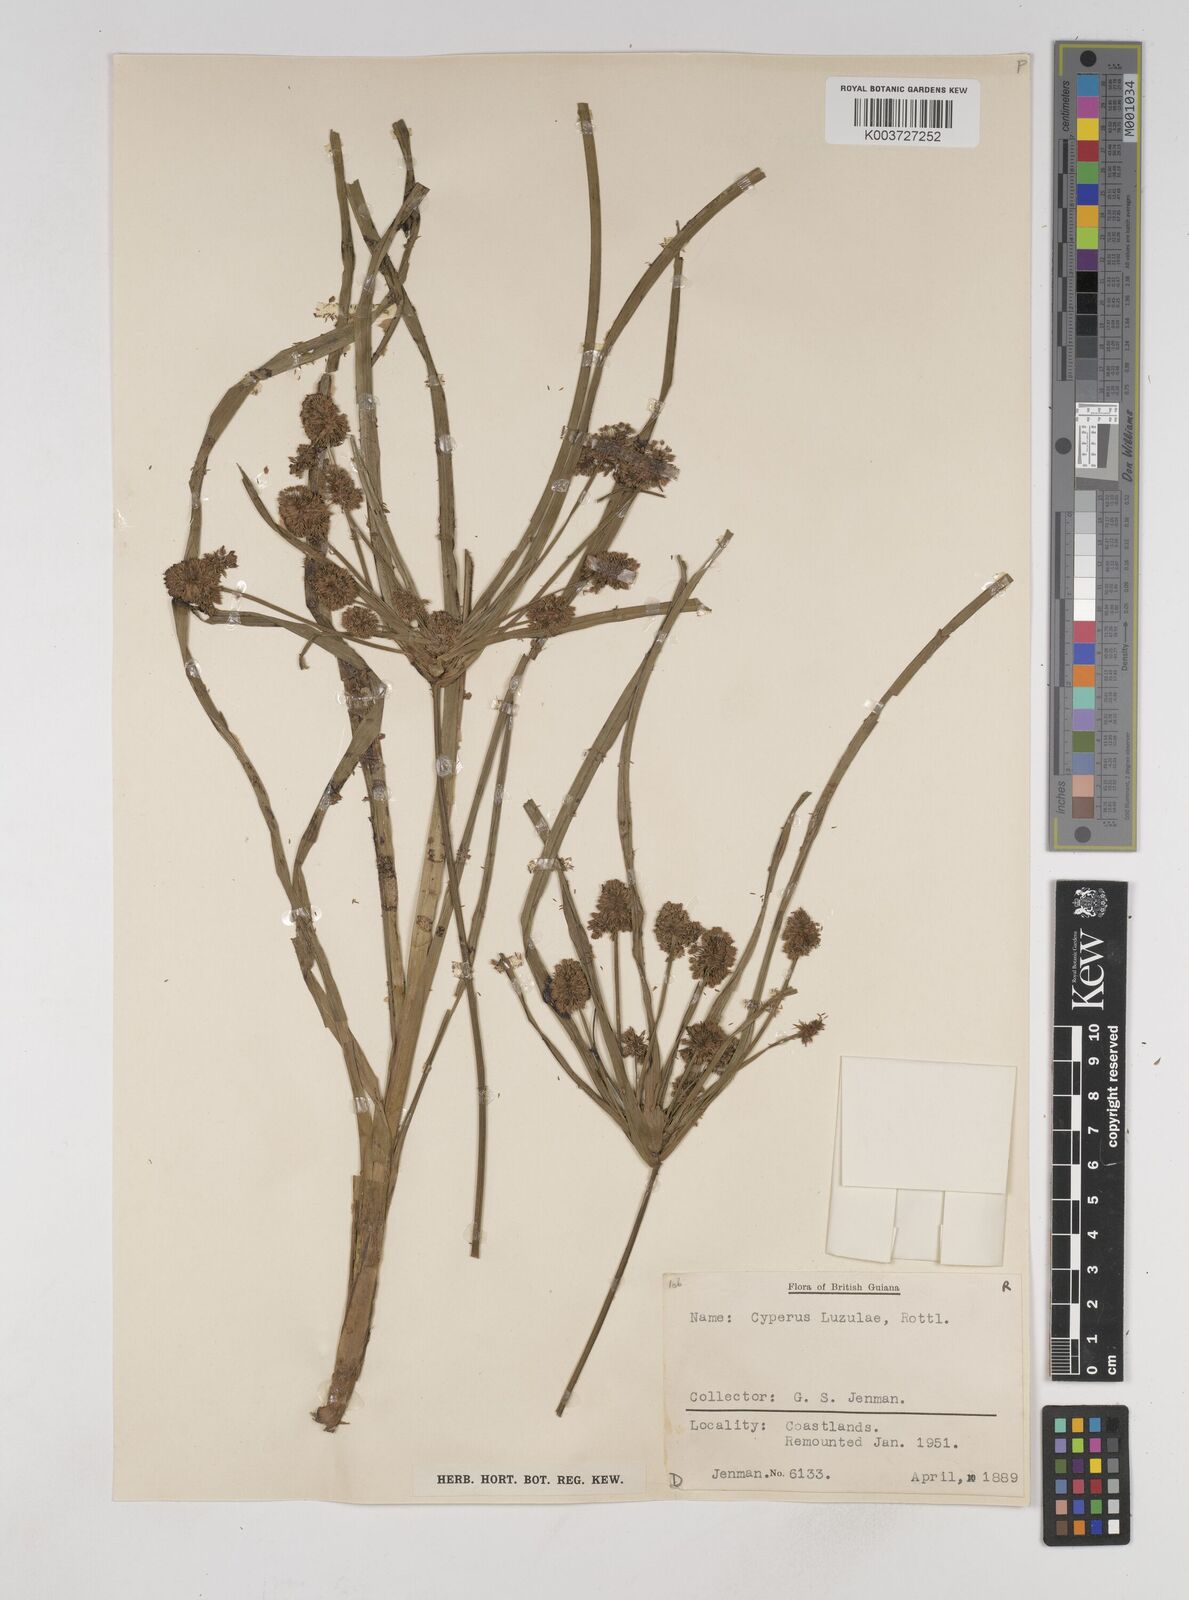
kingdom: Plantae
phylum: Tracheophyta
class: Liliopsida
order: Poales
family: Cyperaceae
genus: Cyperus
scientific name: Cyperus luzulae
